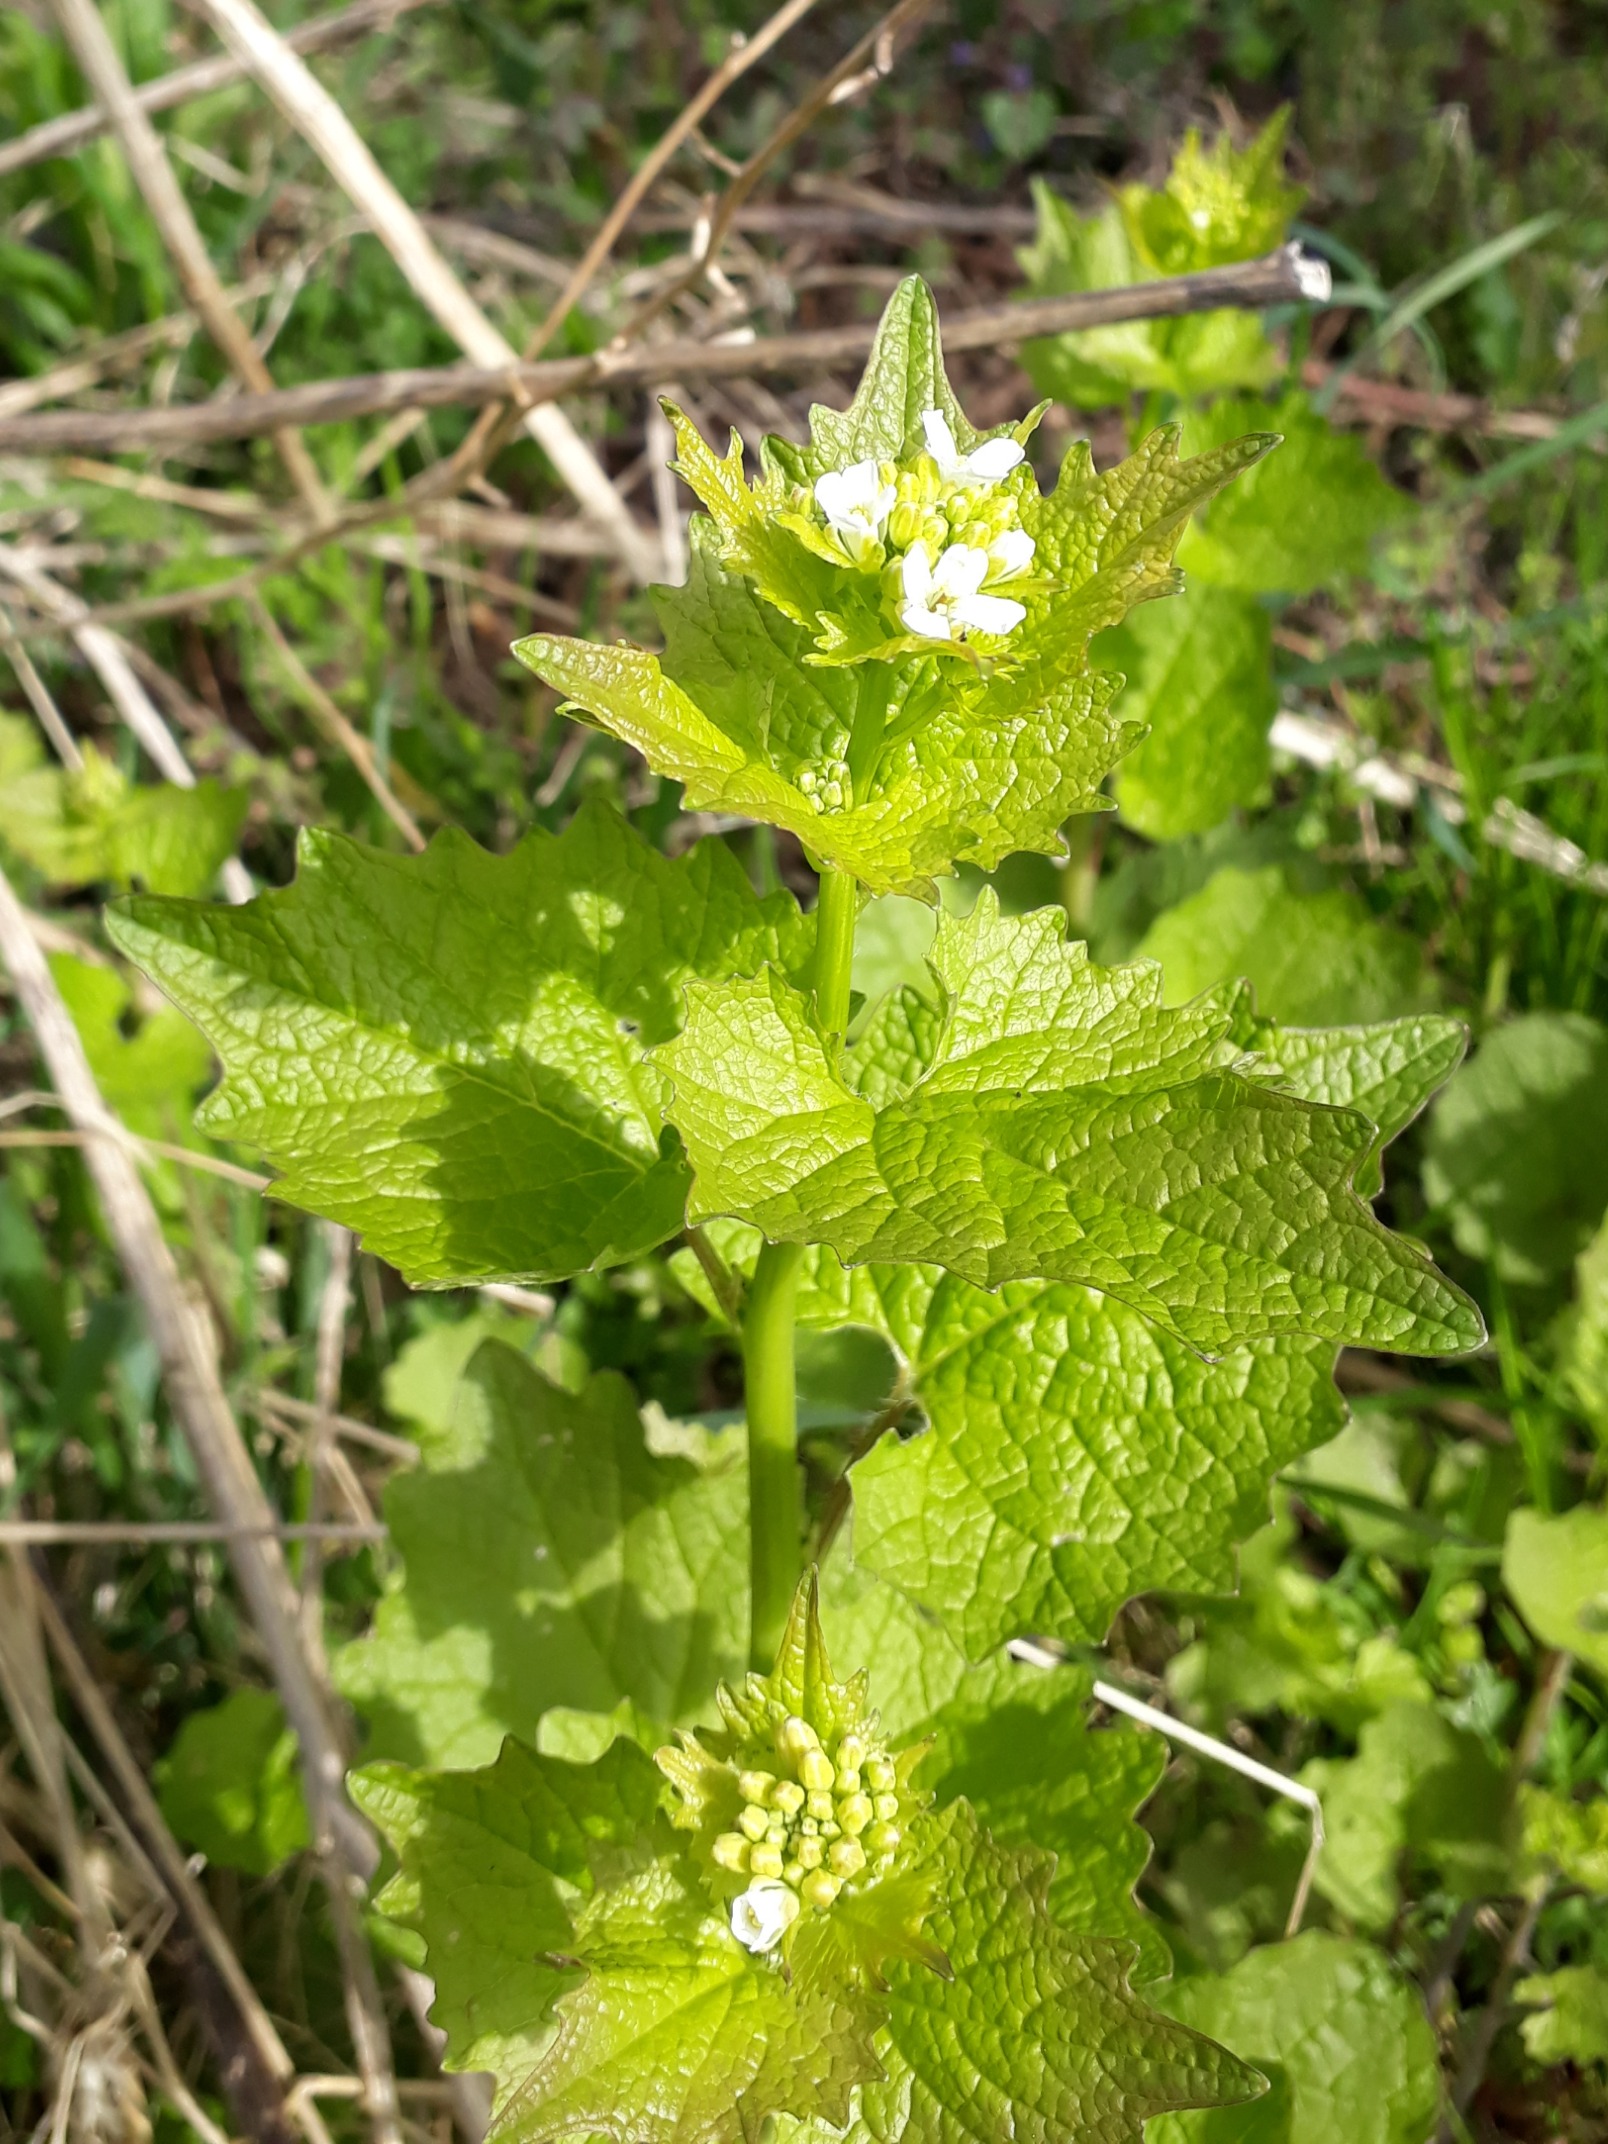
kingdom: Plantae
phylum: Tracheophyta
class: Magnoliopsida
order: Brassicales
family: Brassicaceae
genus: Alliaria
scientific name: Alliaria petiolata
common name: Løgkarse
